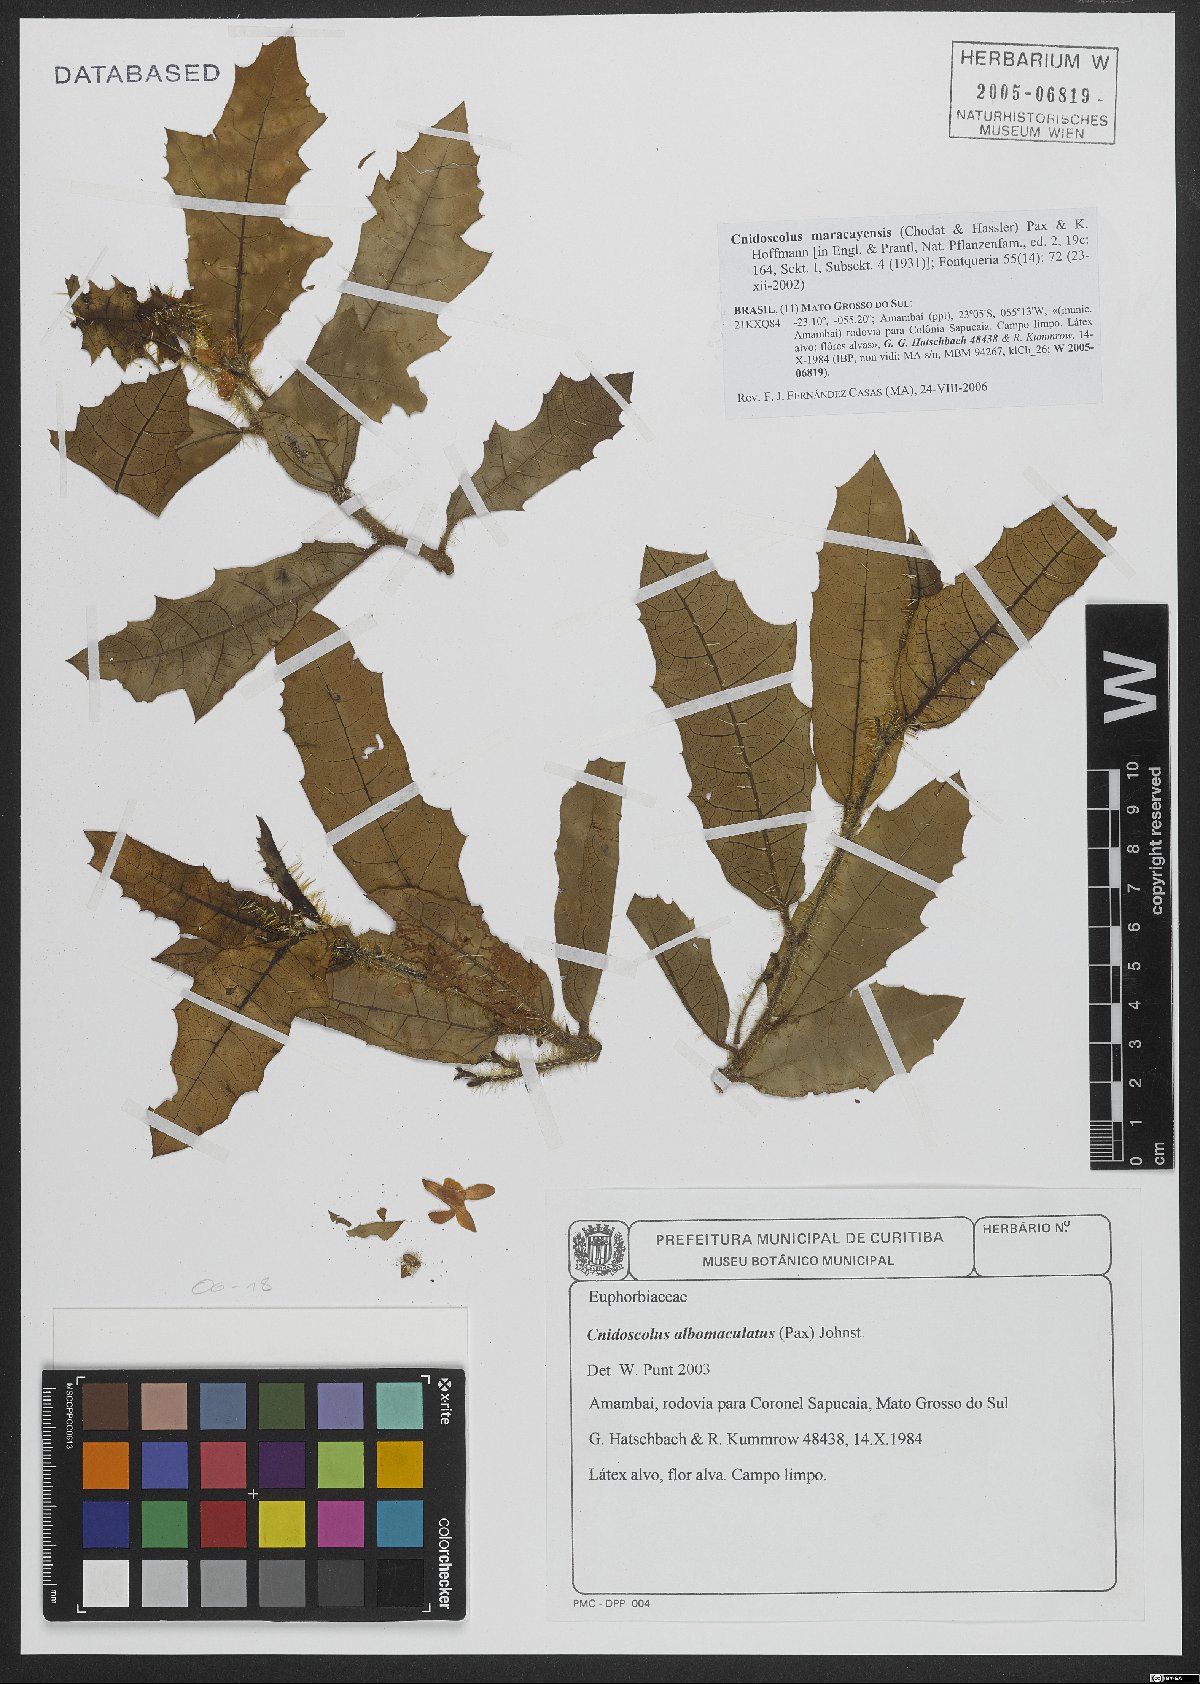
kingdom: Plantae
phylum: Tracheophyta
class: Magnoliopsida
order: Malpighiales
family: Euphorbiaceae
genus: Cnidoscolus
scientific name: Cnidoscolus maracayensis
